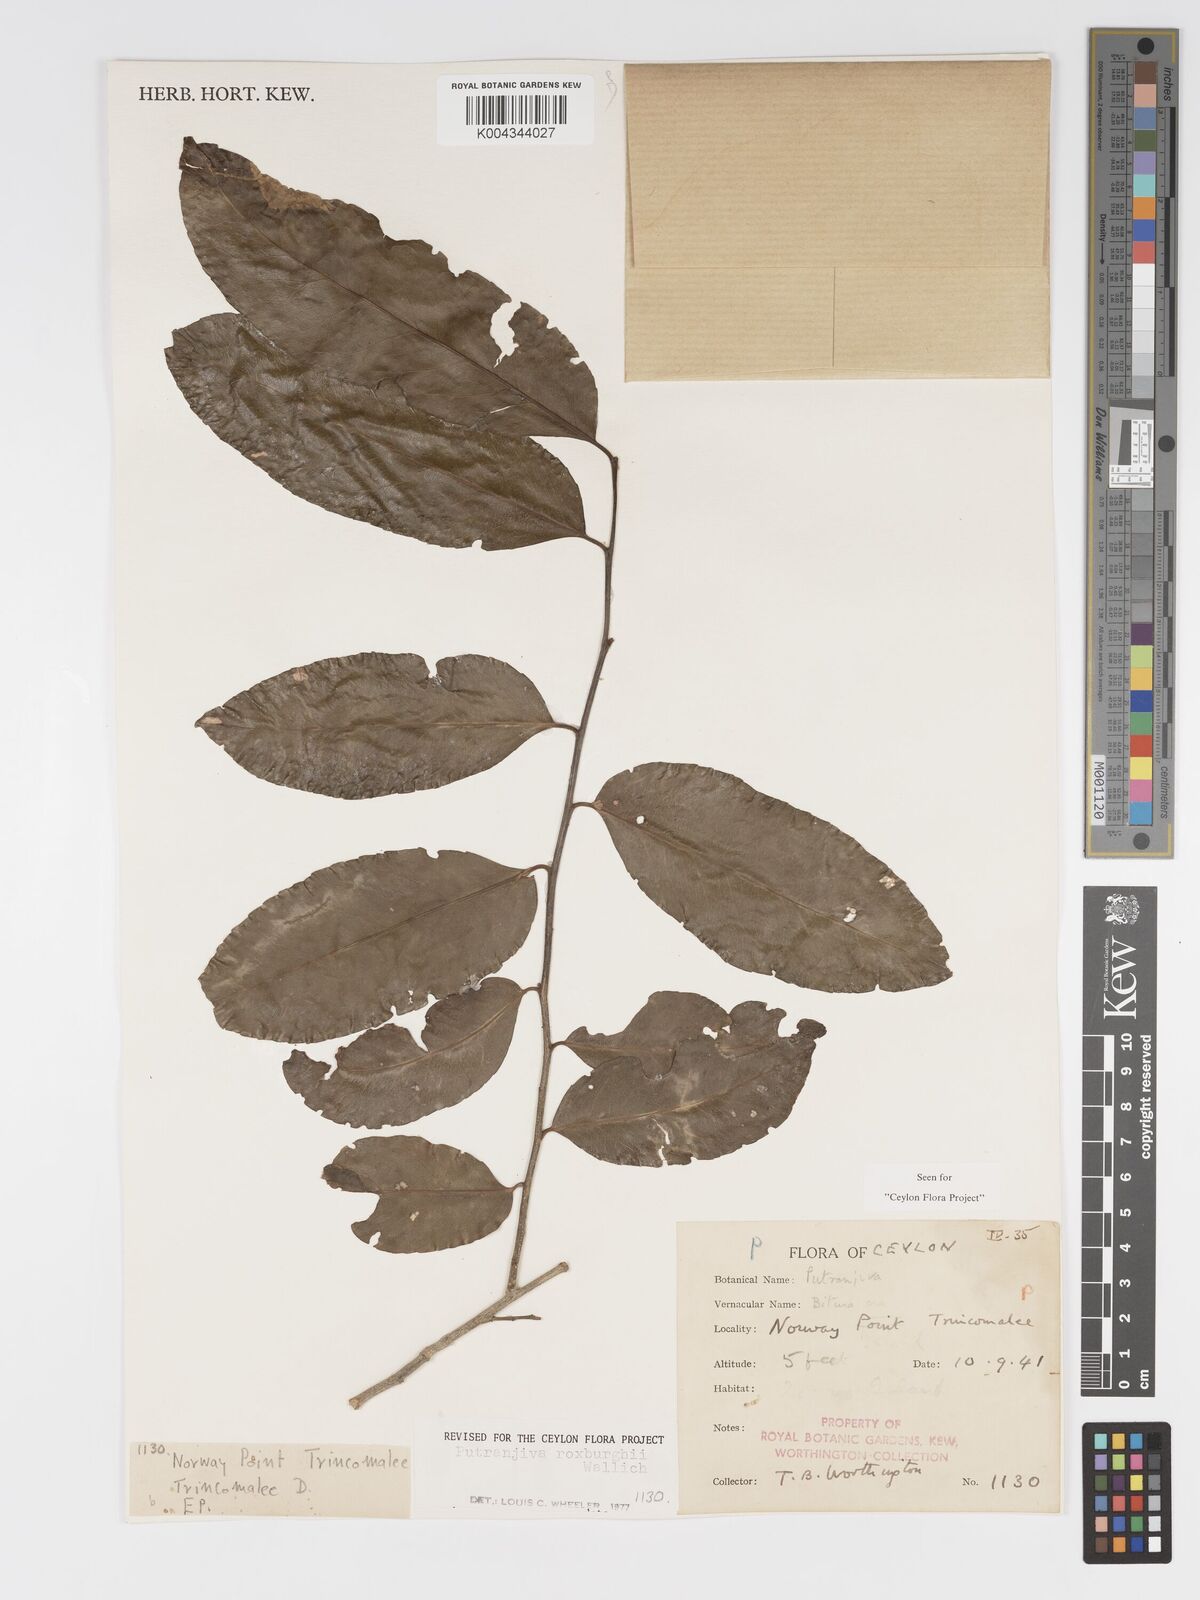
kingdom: Plantae
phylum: Tracheophyta
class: Magnoliopsida
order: Malpighiales
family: Putranjivaceae
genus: Putranjiva
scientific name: Putranjiva roxburghii
